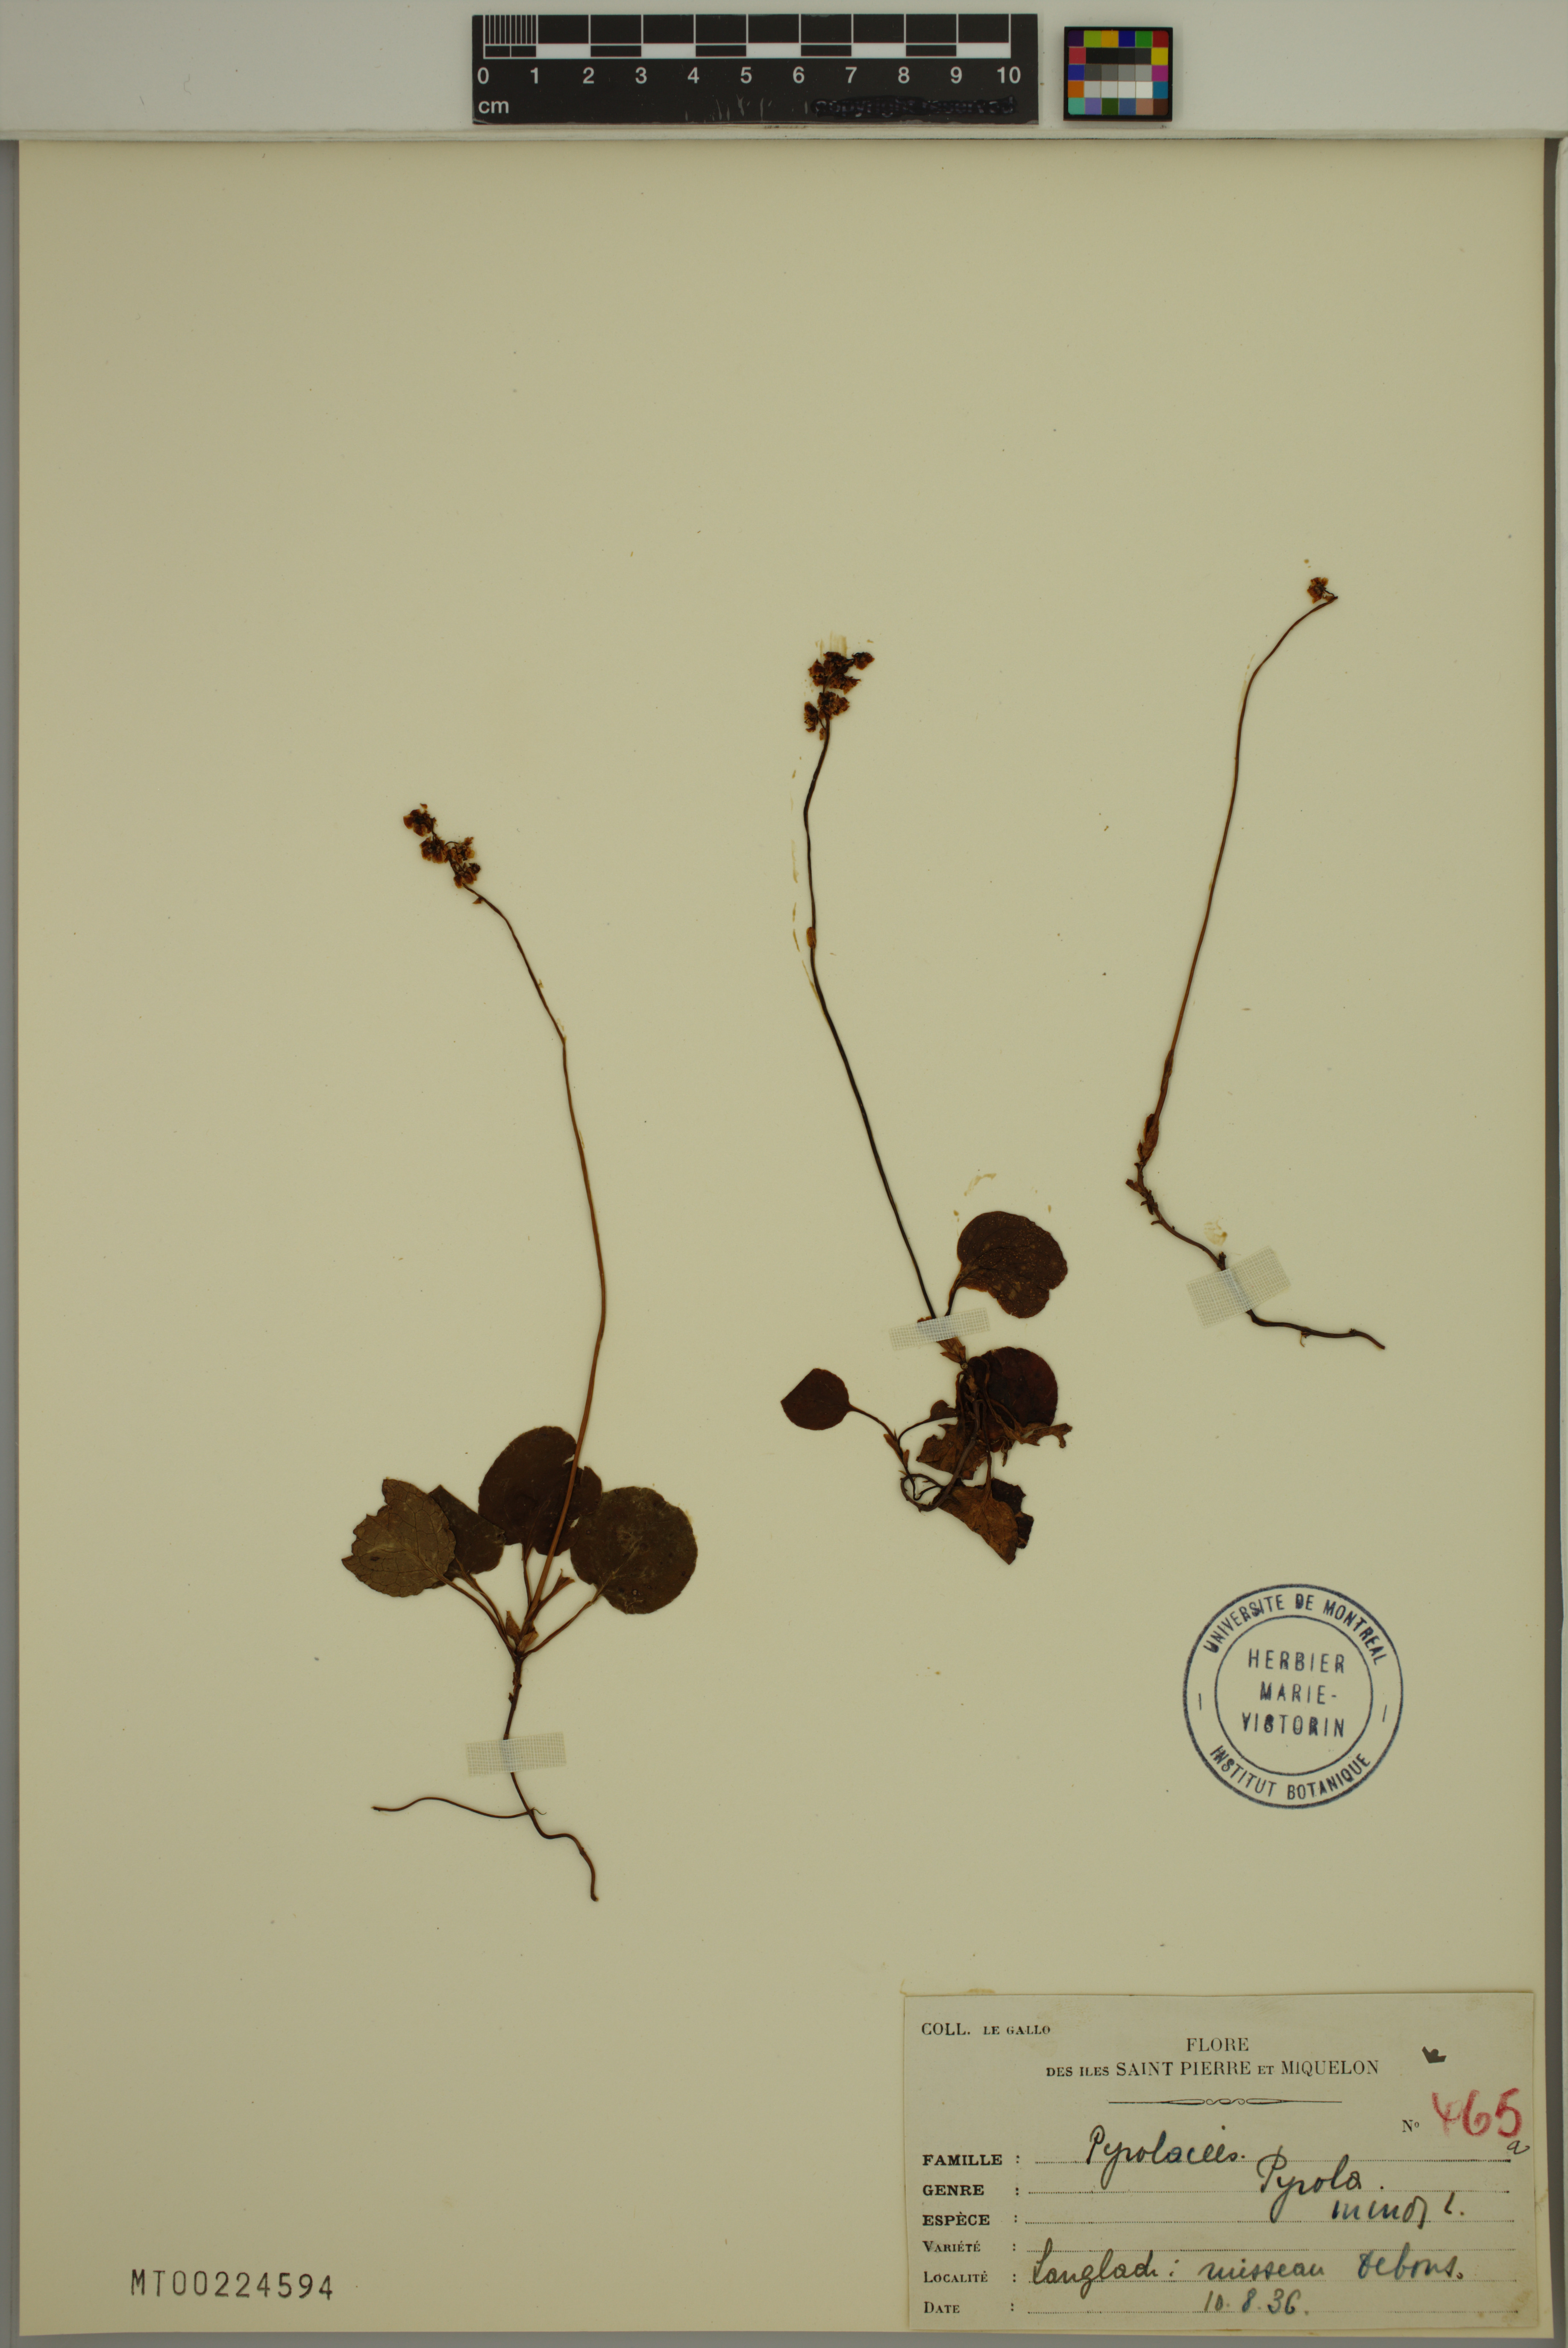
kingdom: Plantae
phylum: Tracheophyta
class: Magnoliopsida
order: Ericales
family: Ericaceae
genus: Pyrola
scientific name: Pyrola minor
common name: Common wintergreen
